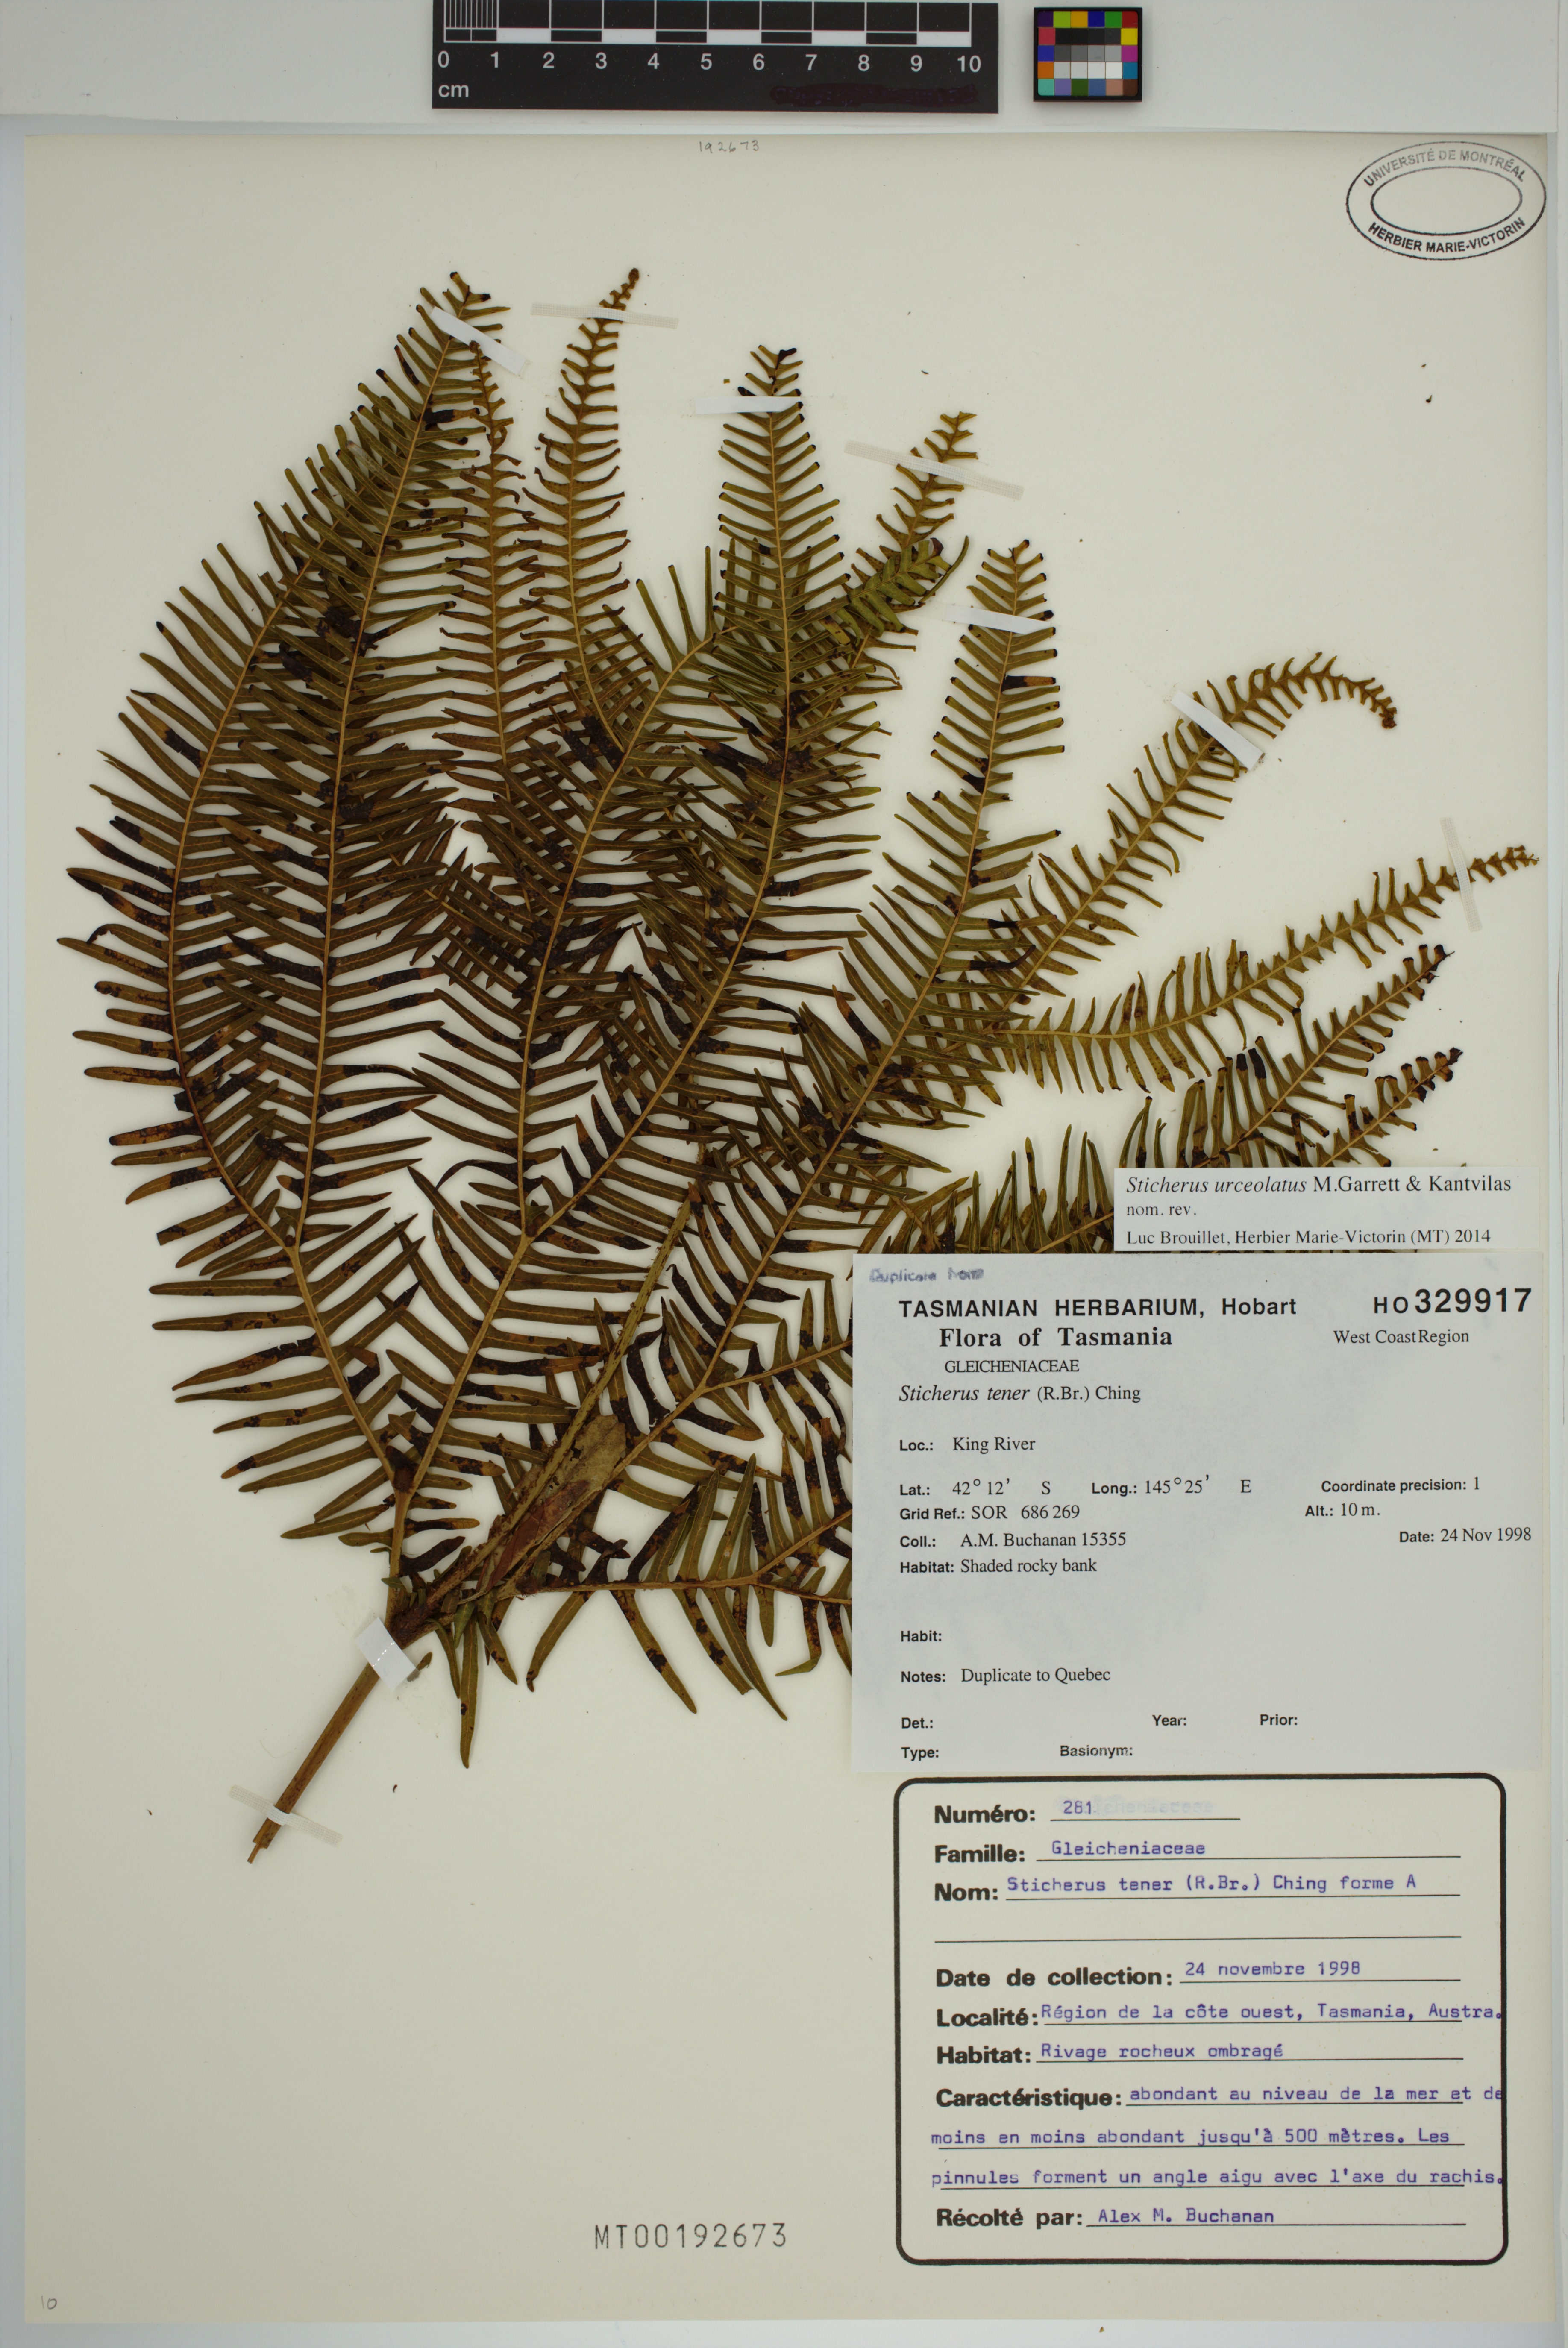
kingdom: Plantae
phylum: Tracheophyta
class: Polypodiopsida
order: Gleicheniales
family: Gleicheniaceae
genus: Sticherus
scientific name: Sticherus urceolatus
